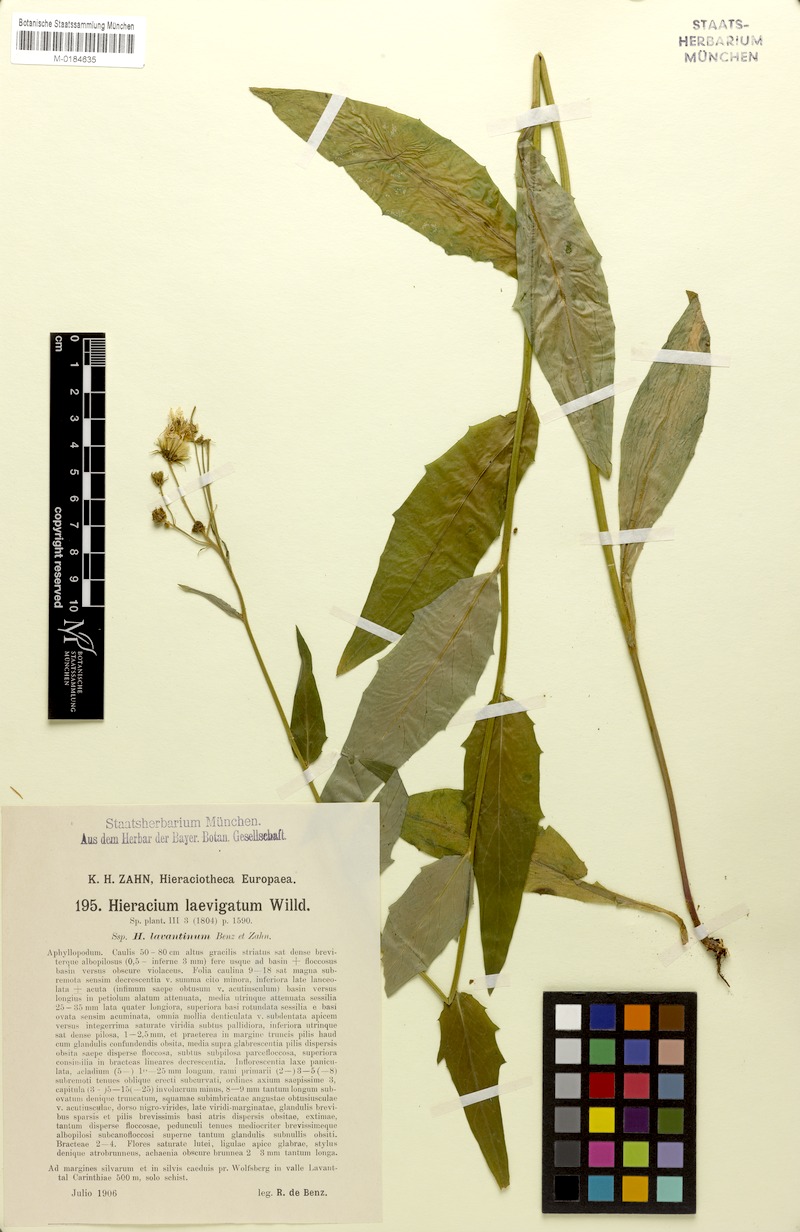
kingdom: Plantae
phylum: Tracheophyta
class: Magnoliopsida
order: Asterales
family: Asteraceae
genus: Hieracium
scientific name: Hieracium flagelliferum
